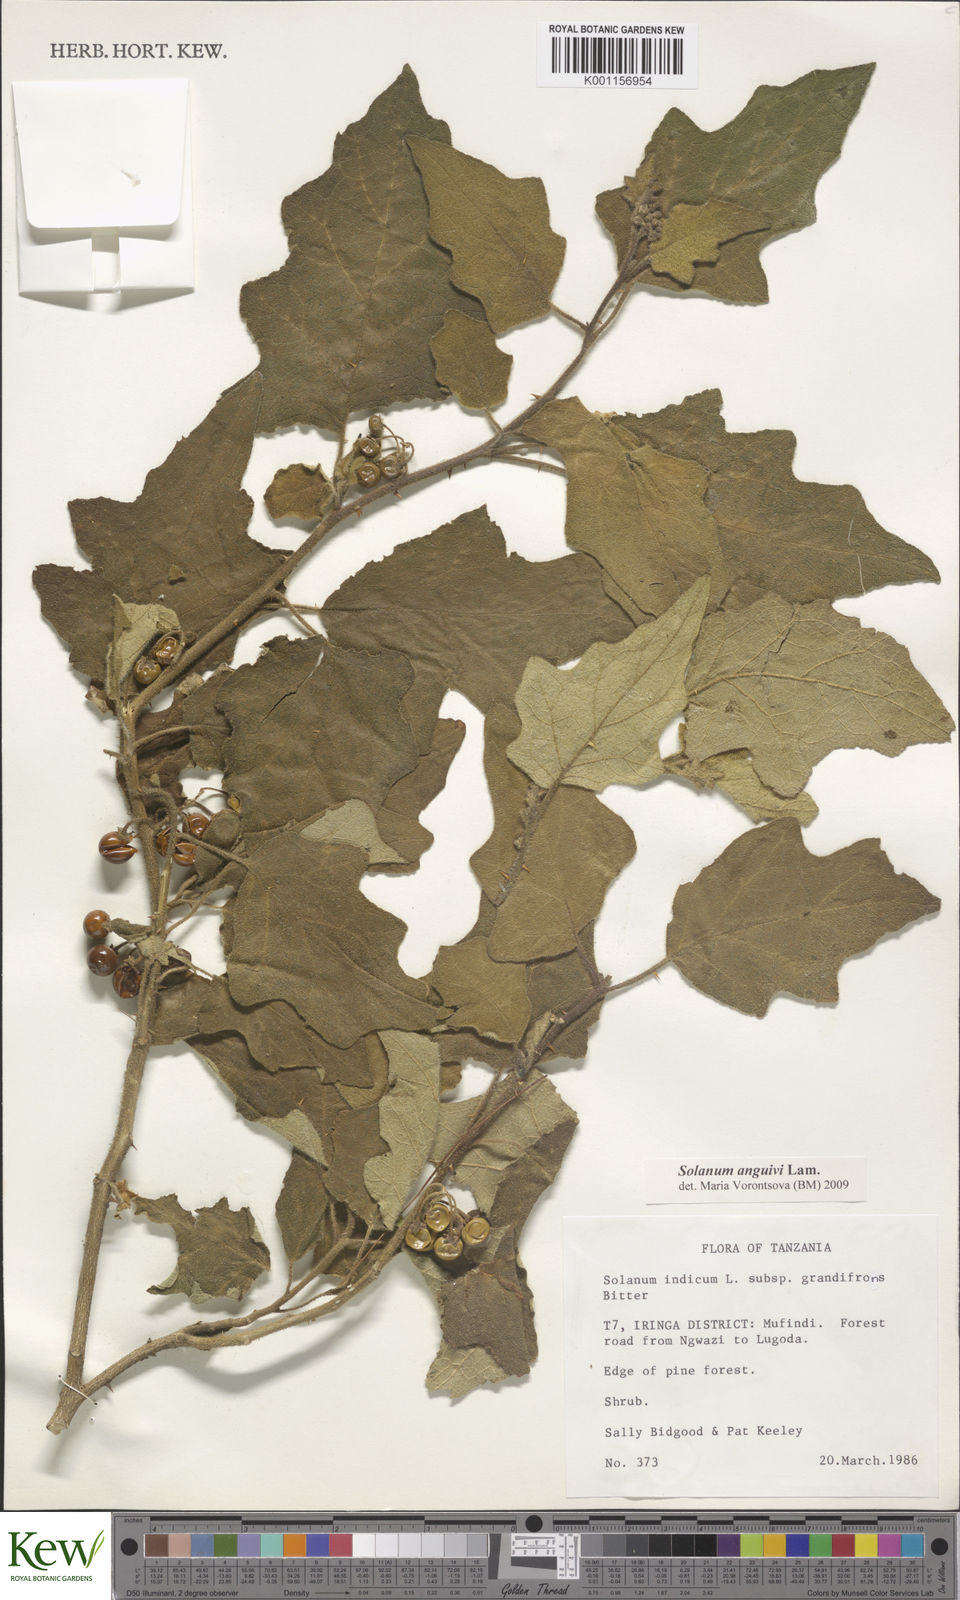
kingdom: Plantae
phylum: Tracheophyta
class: Magnoliopsida
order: Solanales
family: Solanaceae
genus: Solanum
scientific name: Solanum anguivi
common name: Forest bitterberry
